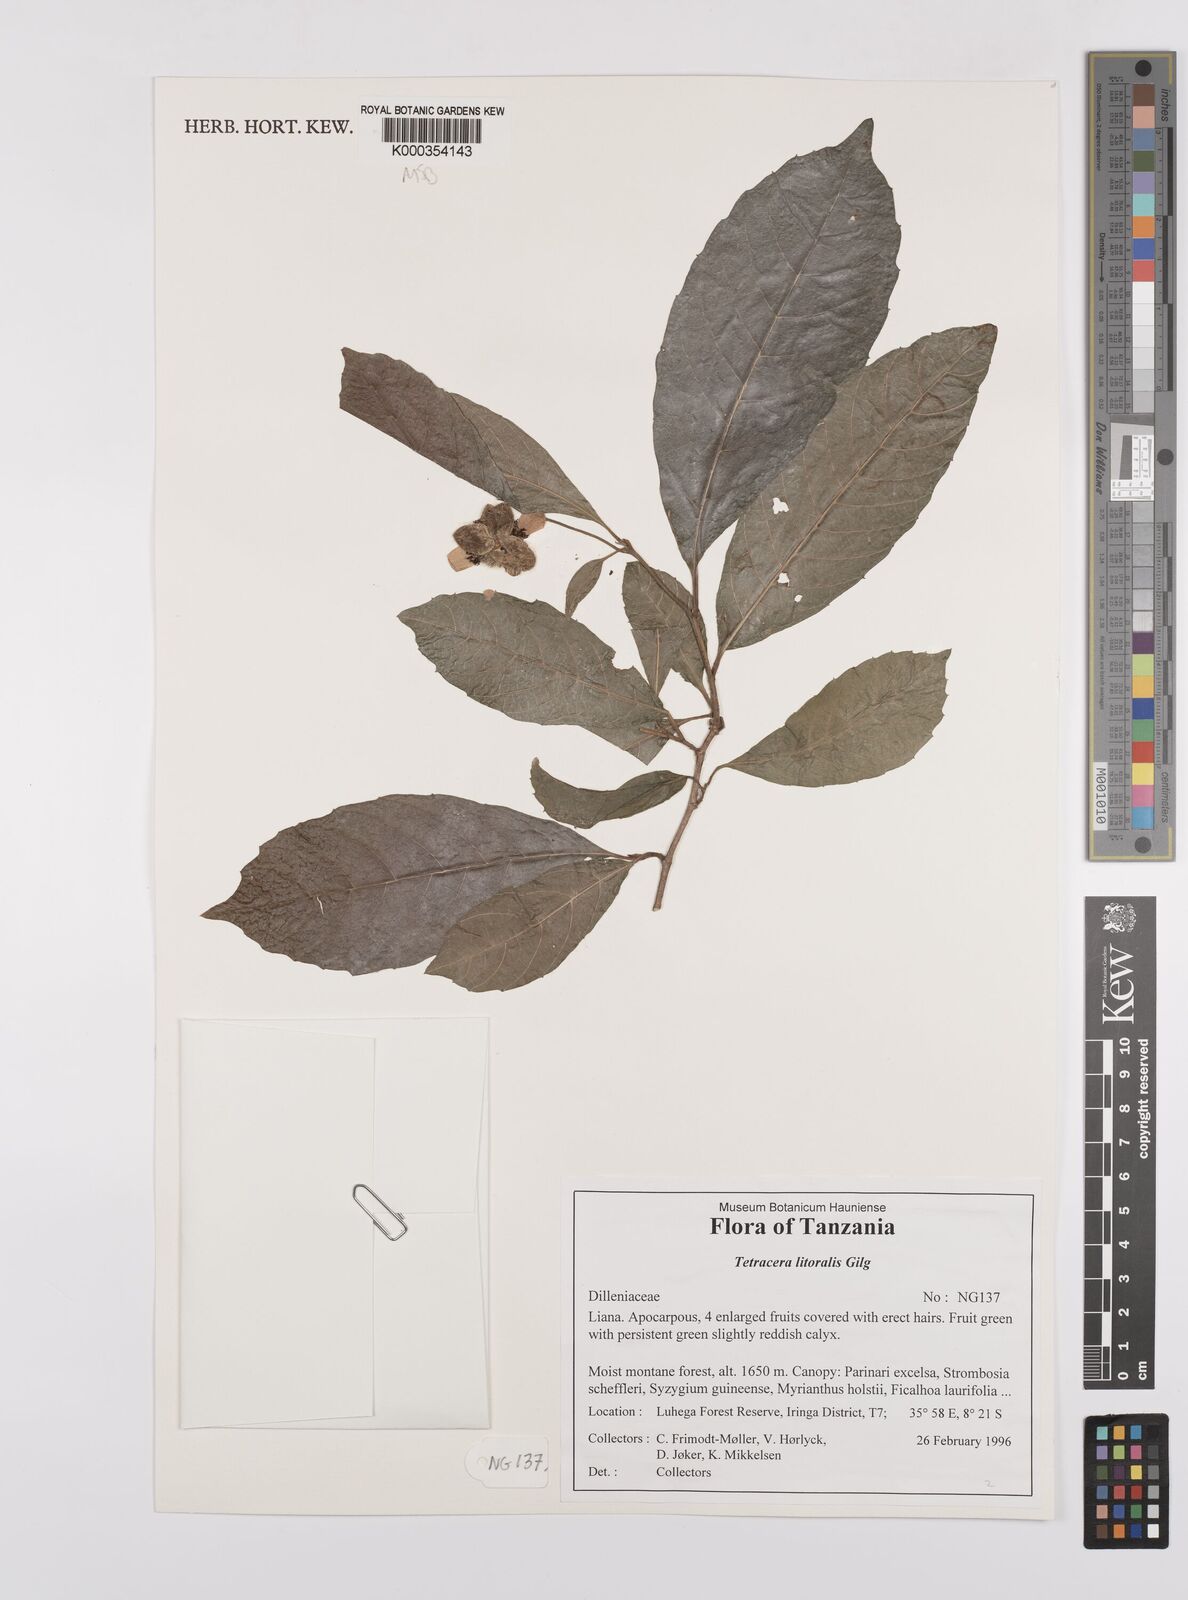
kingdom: Plantae
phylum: Tracheophyta
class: Magnoliopsida
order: Dilleniales
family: Dilleniaceae
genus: Tetracera
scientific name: Tetracera litoralis
